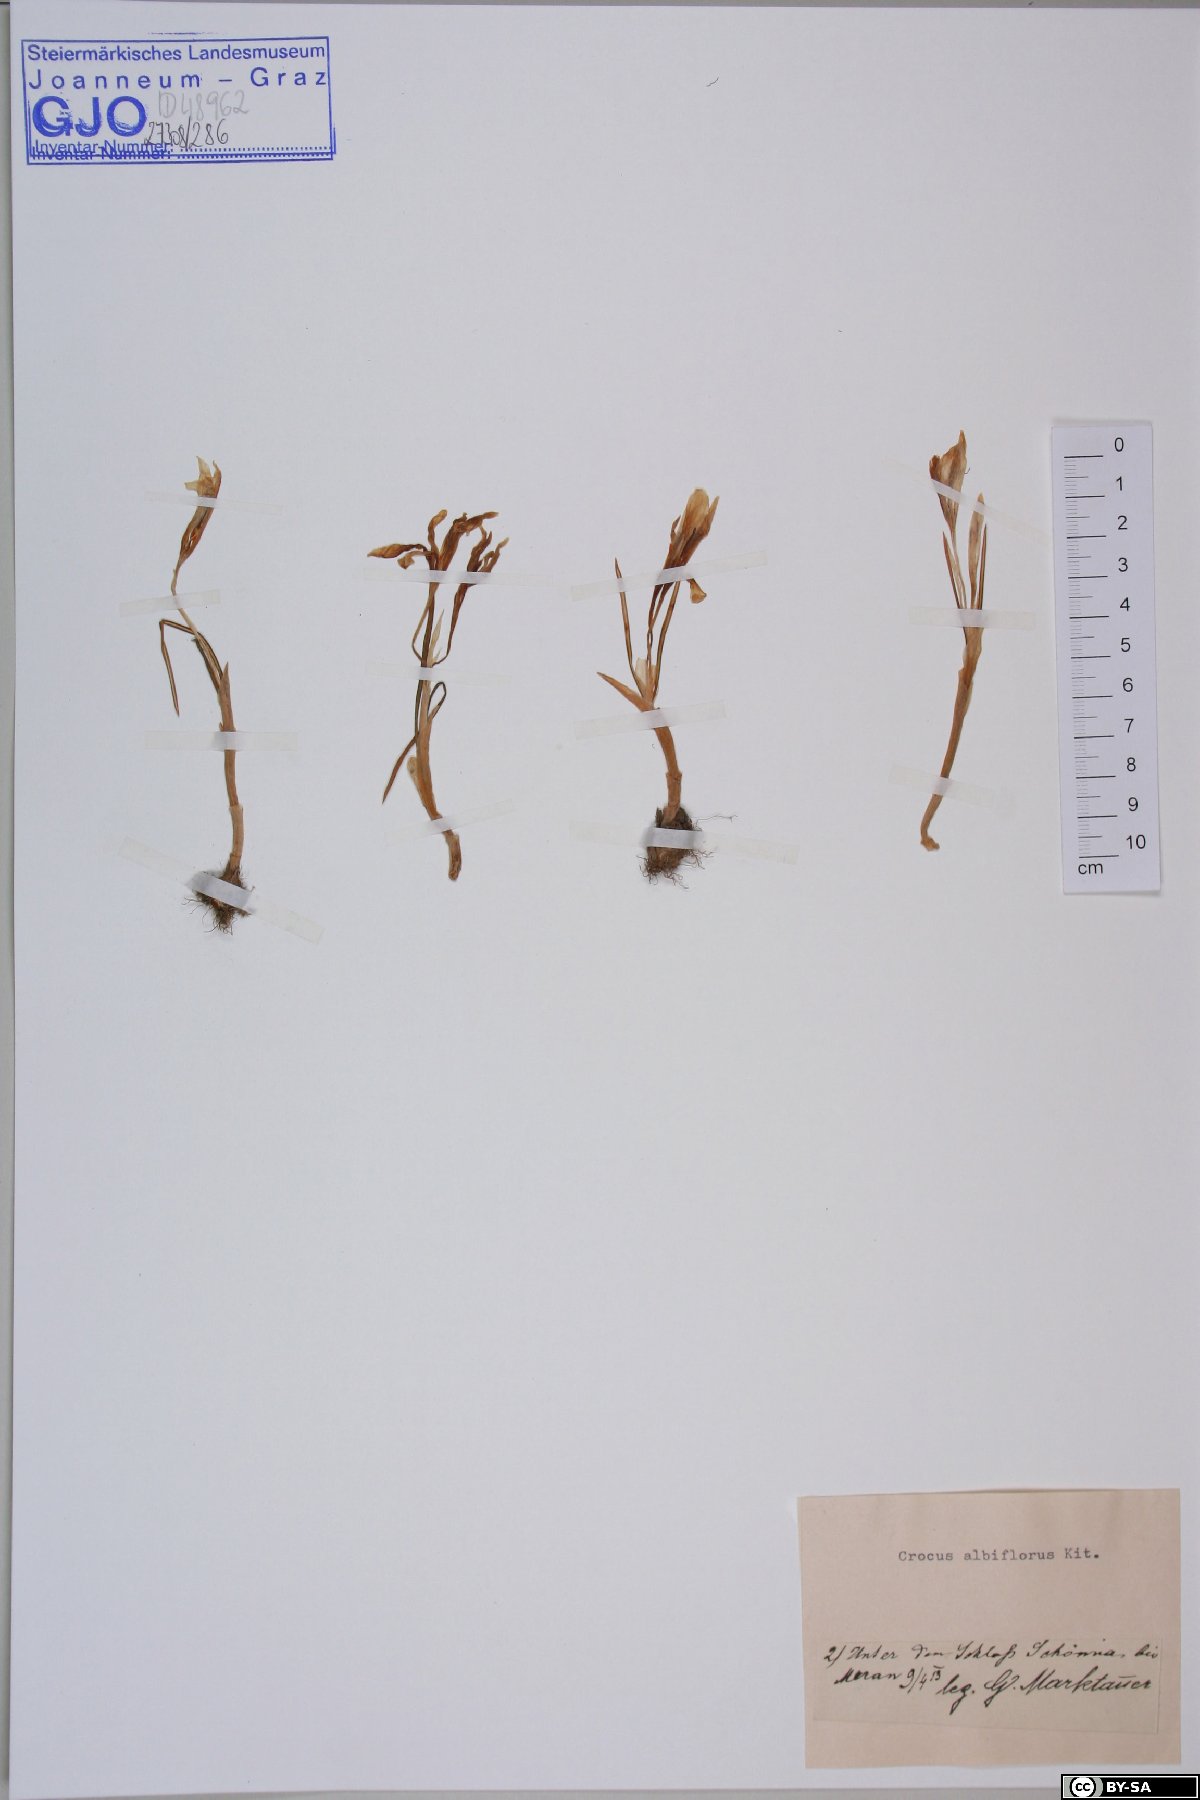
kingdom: Plantae
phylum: Tracheophyta
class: Liliopsida
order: Asparagales
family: Iridaceae
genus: Crocus
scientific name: Crocus vernus
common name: Spring crocus
